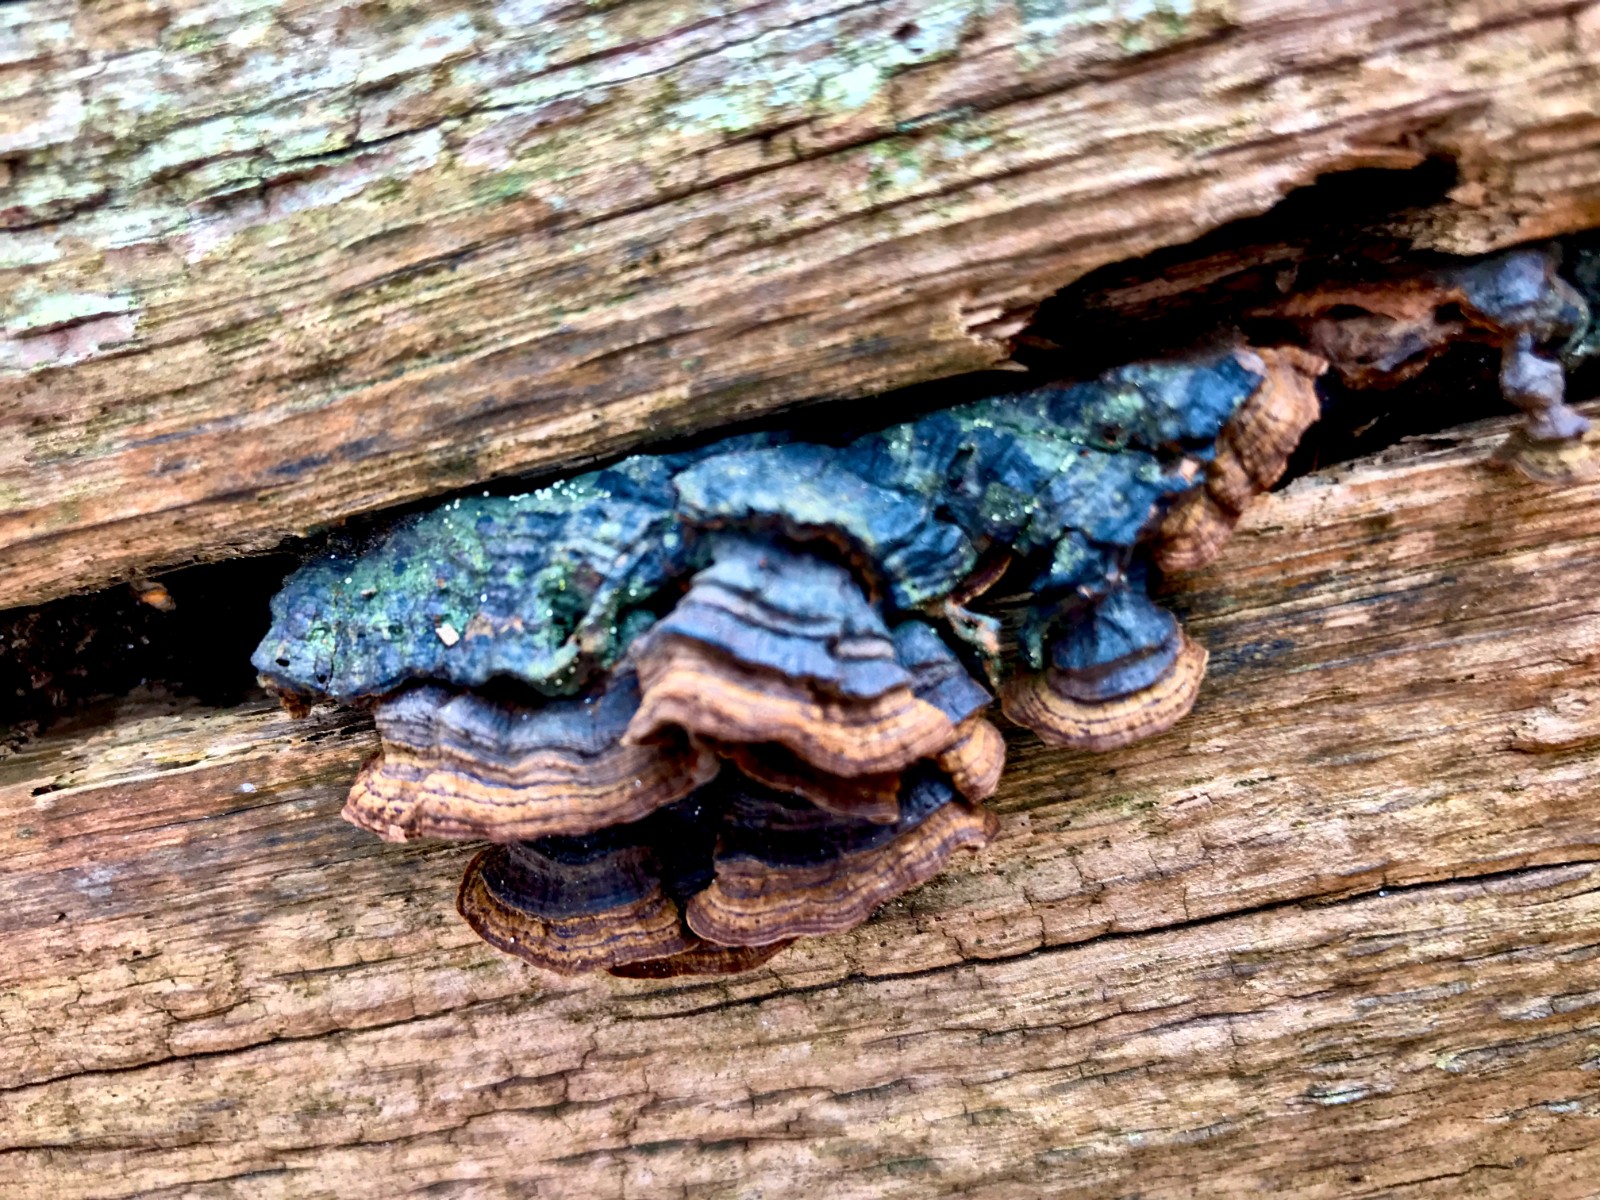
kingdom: Fungi
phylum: Basidiomycota
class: Agaricomycetes
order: Hymenochaetales
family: Hymenochaetaceae
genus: Hymenochaete
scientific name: Hymenochaete rubiginosa
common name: stiv ruslædersvamp
